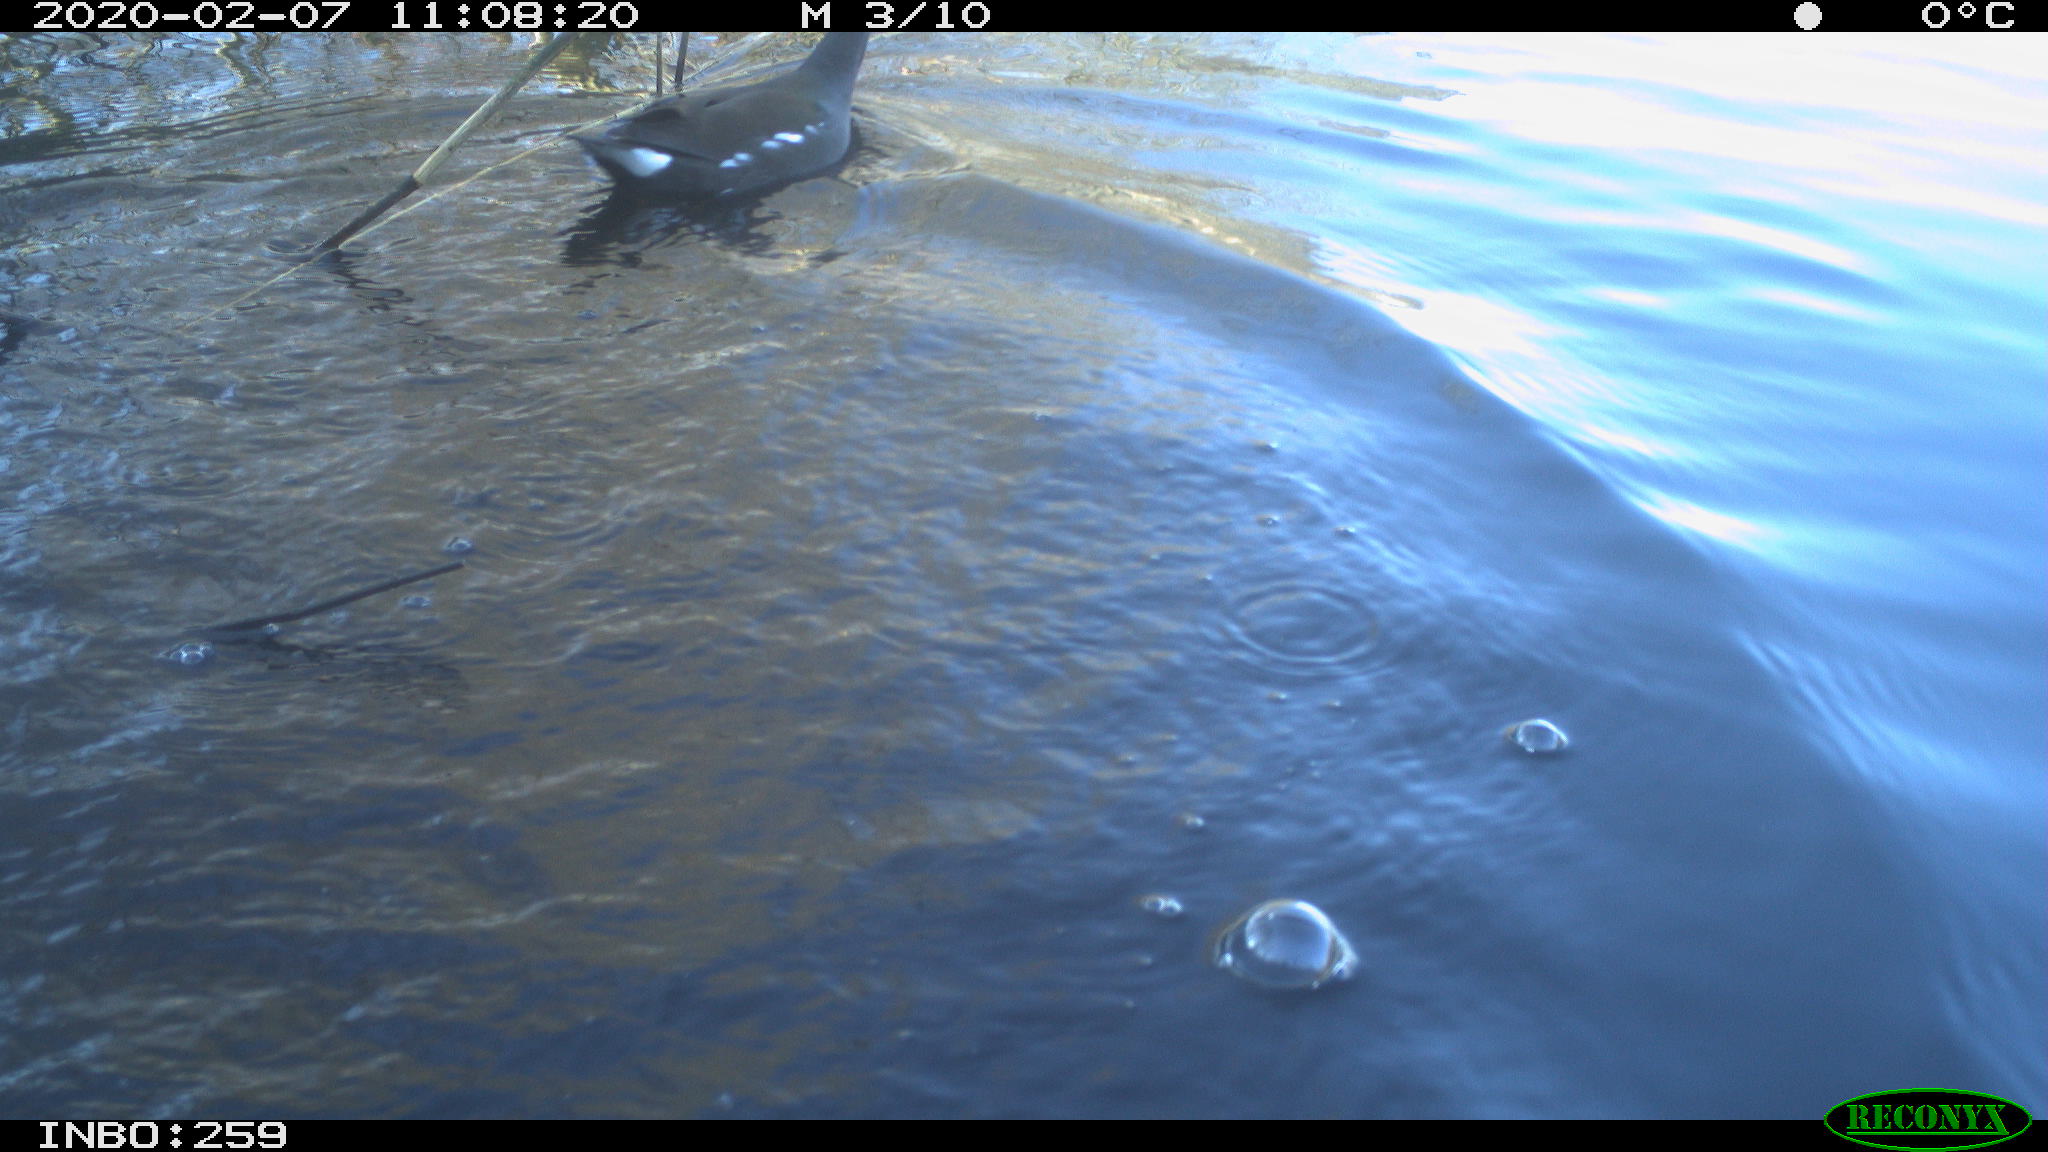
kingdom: Animalia
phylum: Chordata
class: Aves
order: Gruiformes
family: Rallidae
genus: Gallinula
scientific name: Gallinula chloropus
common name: Common moorhen
